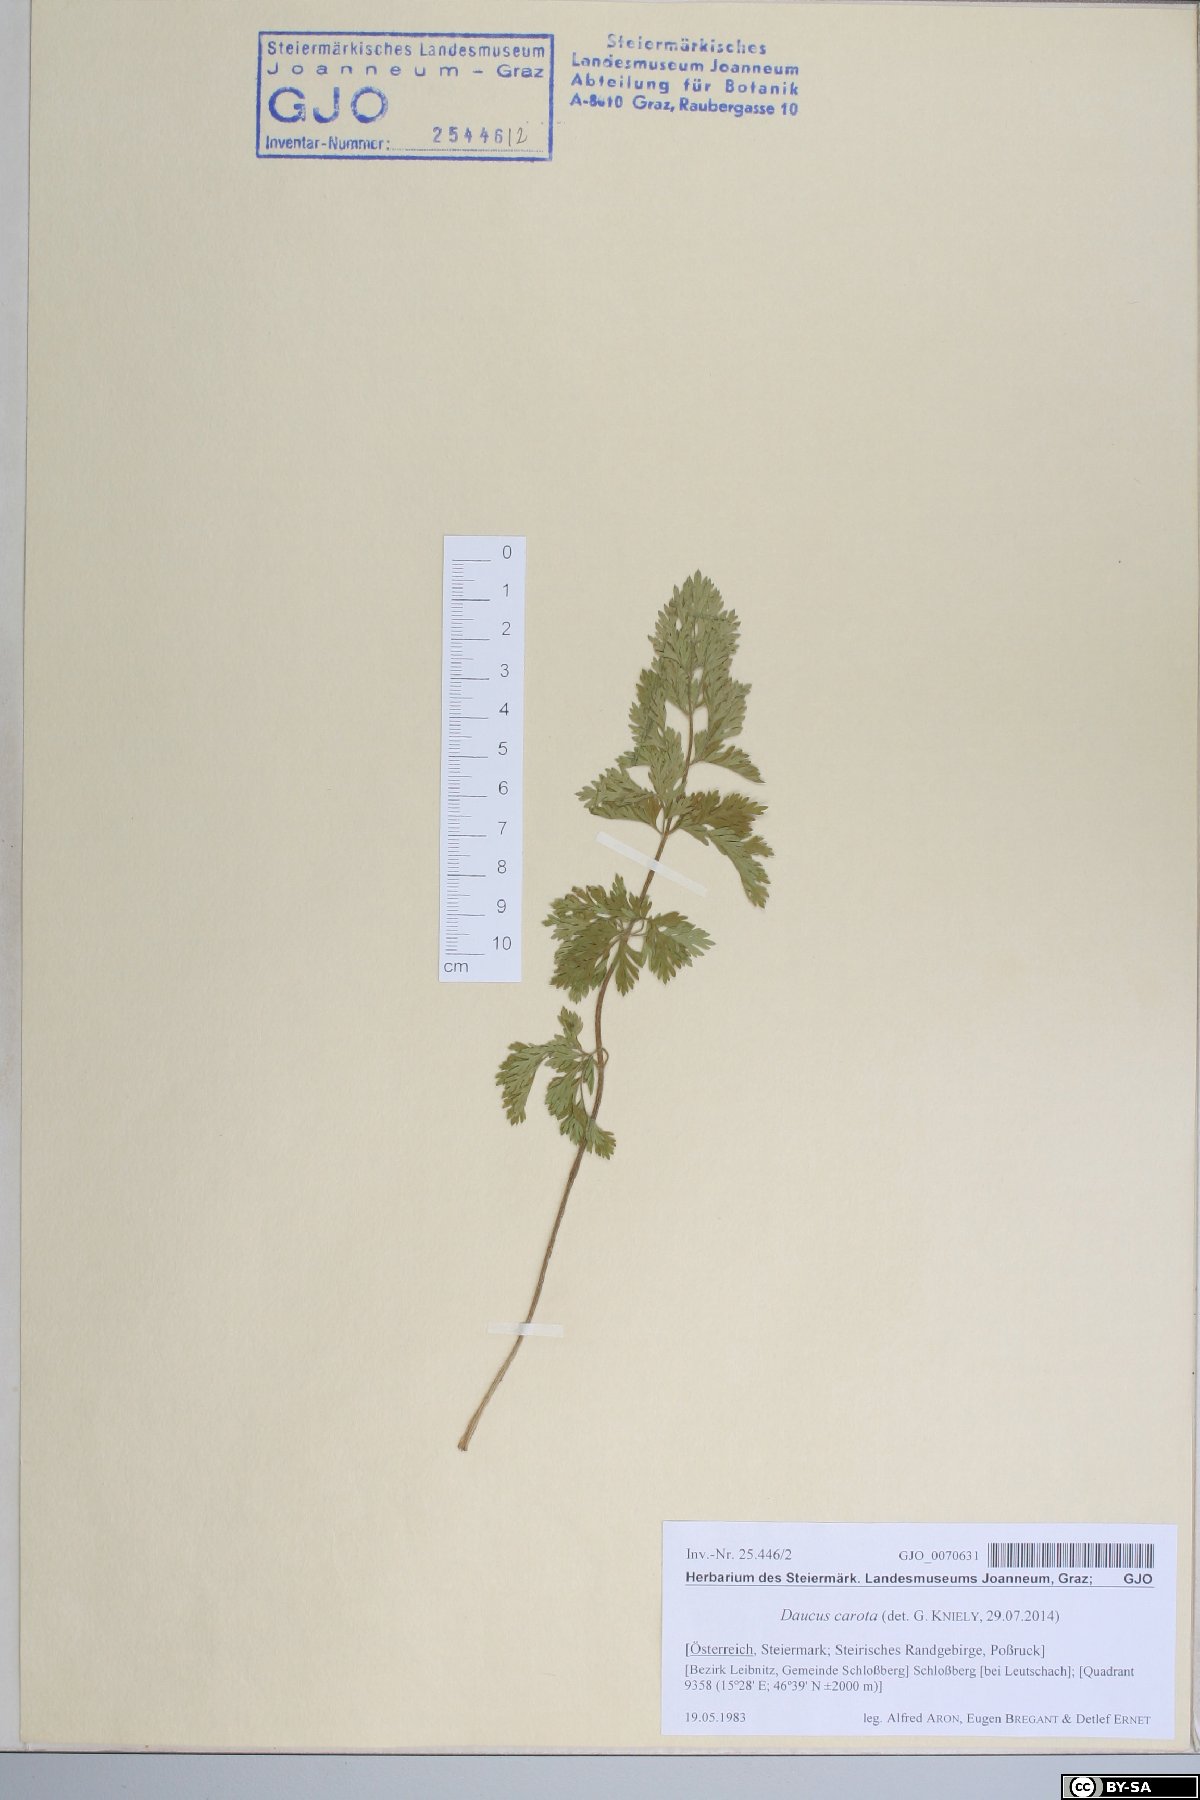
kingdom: Plantae
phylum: Tracheophyta
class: Magnoliopsida
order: Apiales
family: Apiaceae
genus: Daucus
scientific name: Daucus carota
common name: Wild carrot
